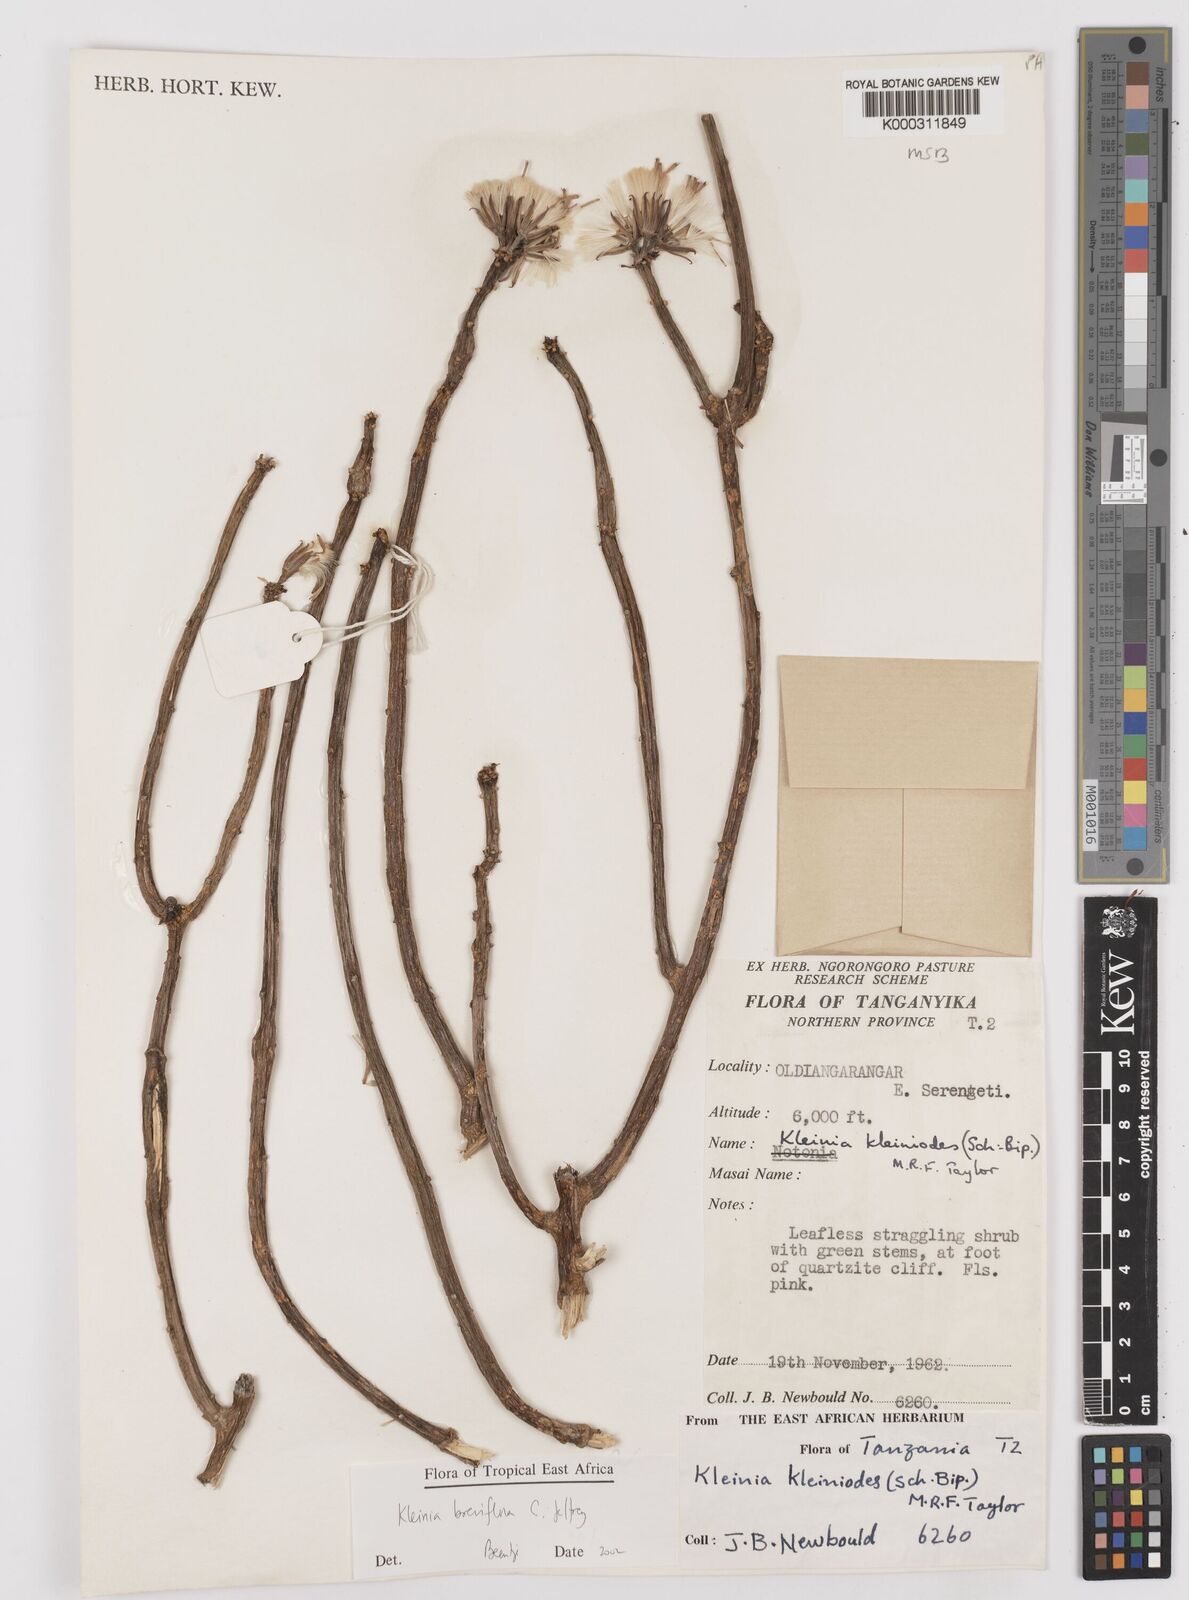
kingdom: Plantae
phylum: Tracheophyta
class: Magnoliopsida
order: Asterales
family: Asteraceae
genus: Kleinia
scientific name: Kleinia polycotoma
